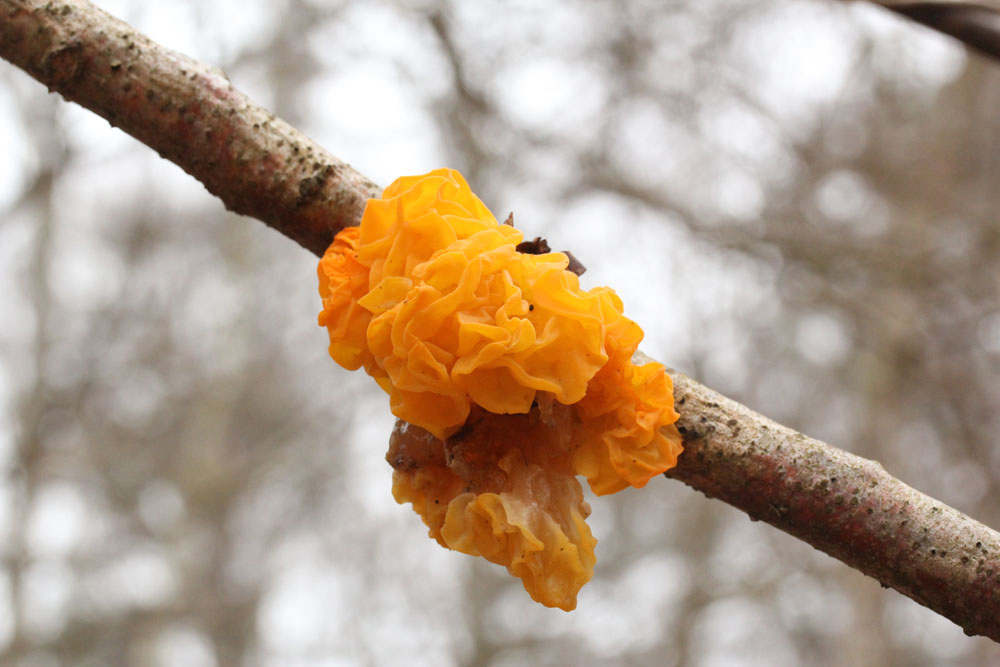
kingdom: Fungi
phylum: Basidiomycota
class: Tremellomycetes
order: Tremellales
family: Tremellaceae
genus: Tremella
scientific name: Tremella mesenterica
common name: gul bævresvamp
